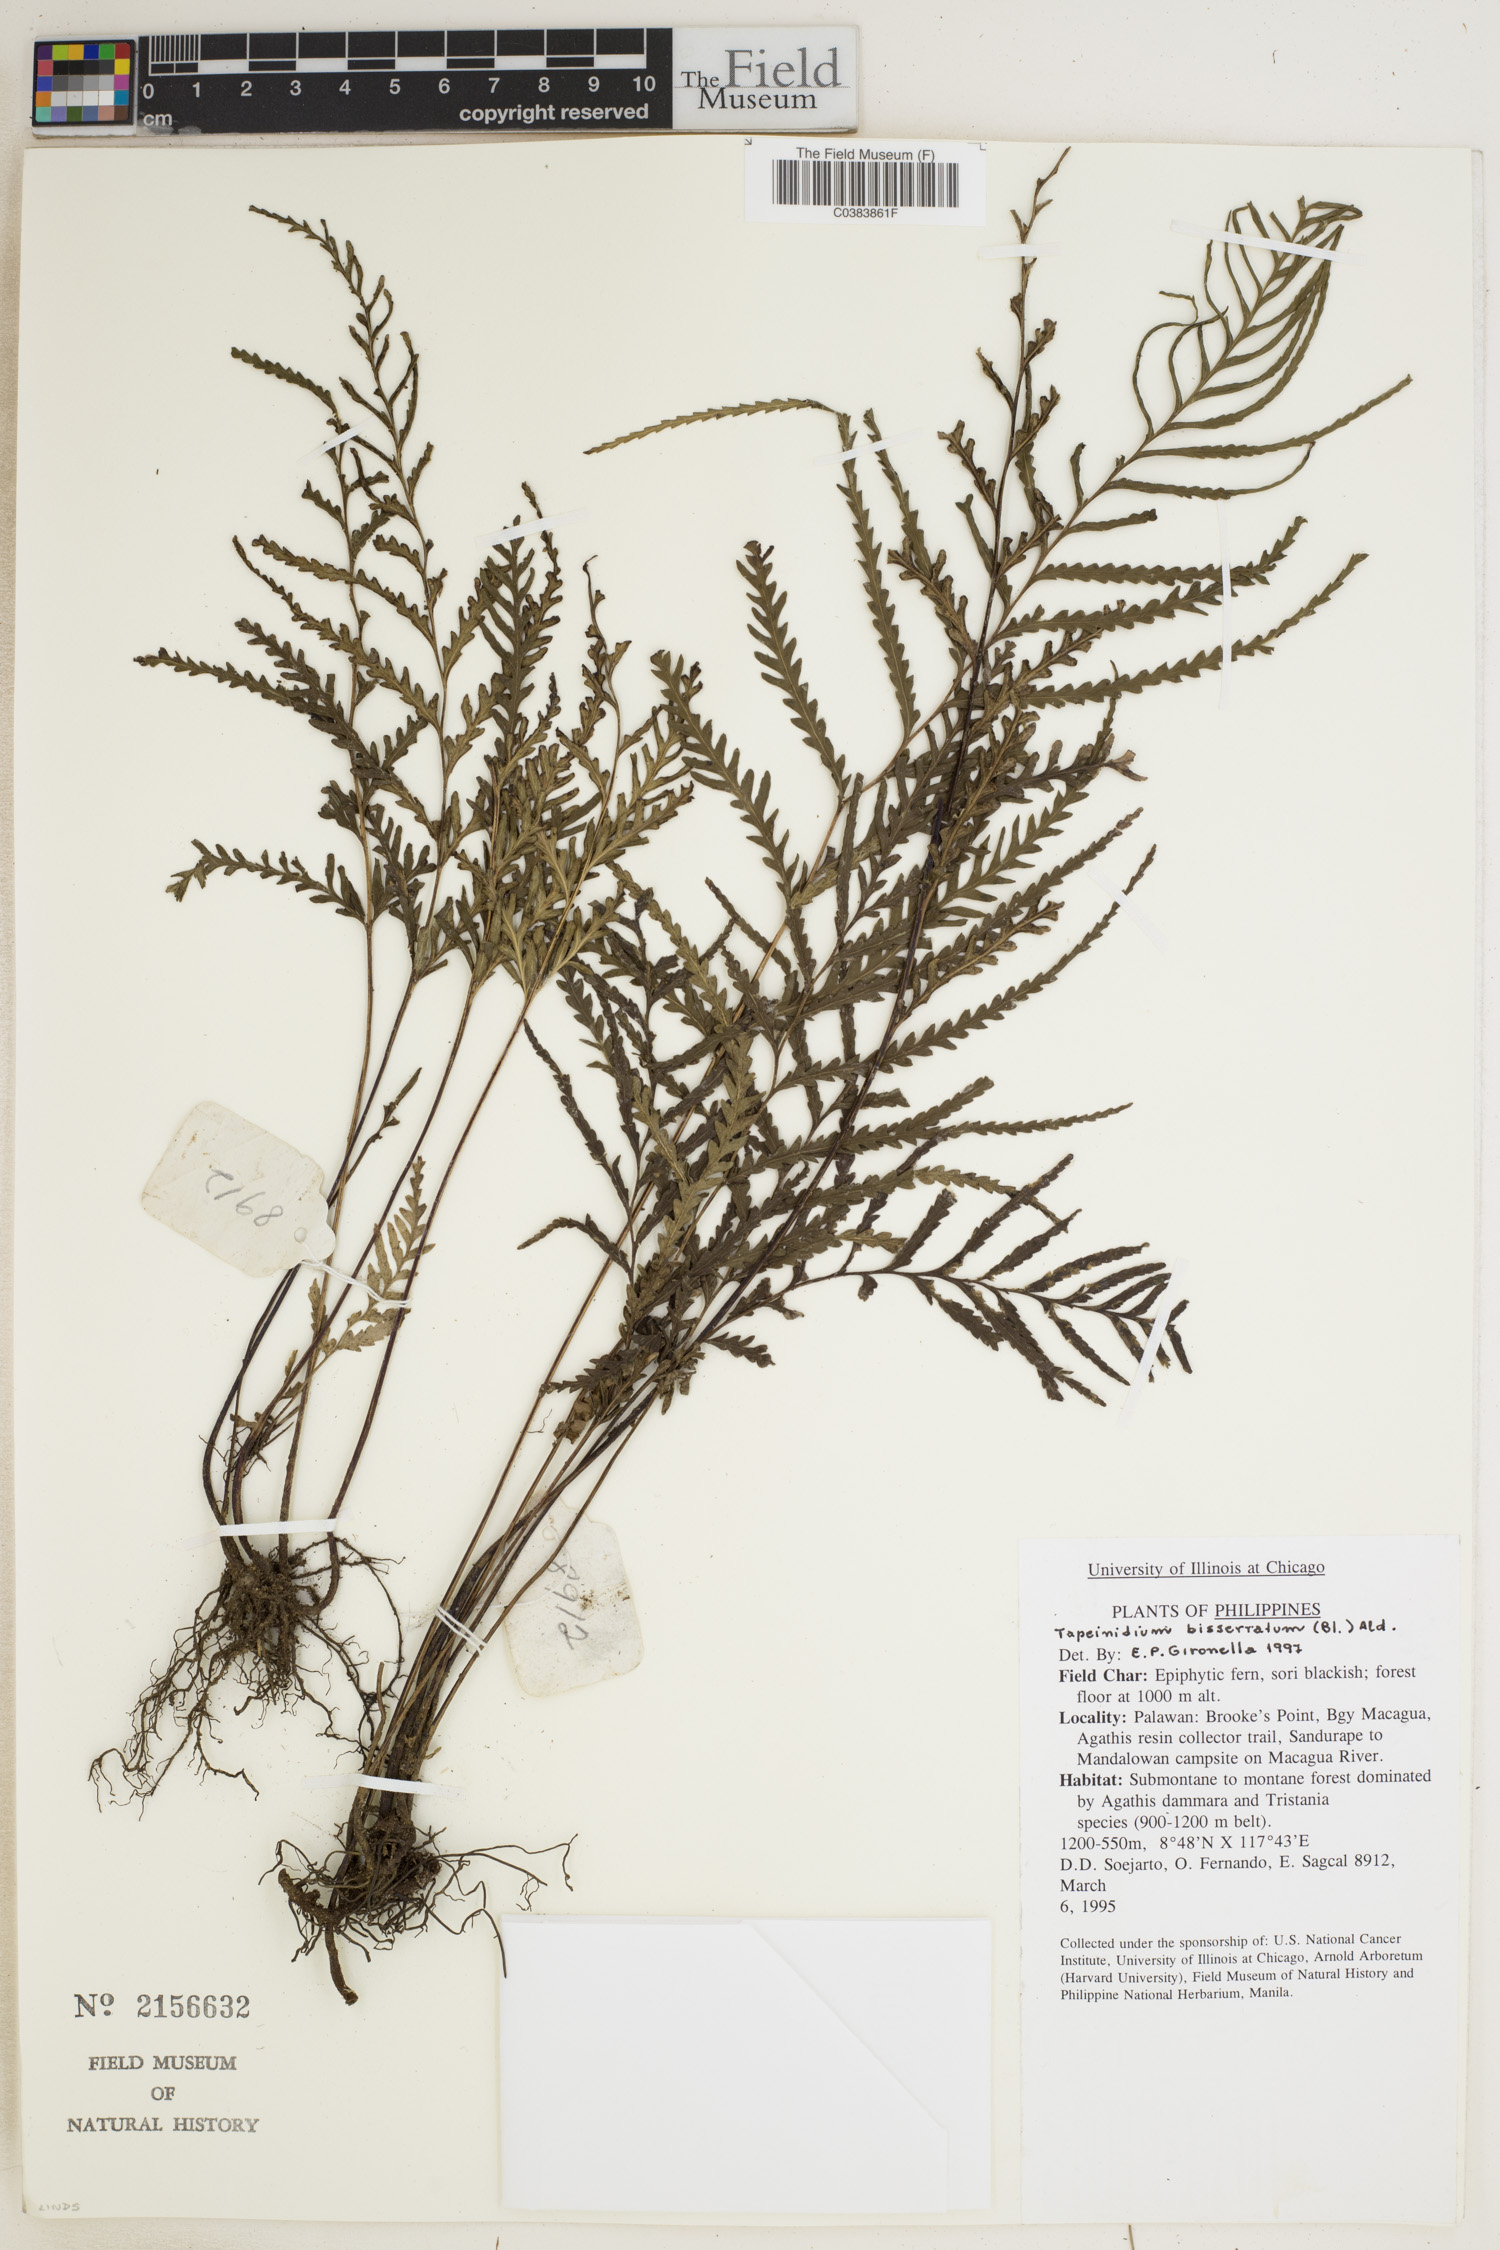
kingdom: Plantae
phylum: Tracheophyta
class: Polypodiopsida
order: Polypodiales
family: Lindsaeaceae
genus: Tapeinidium
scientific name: Tapeinidium biserratum
